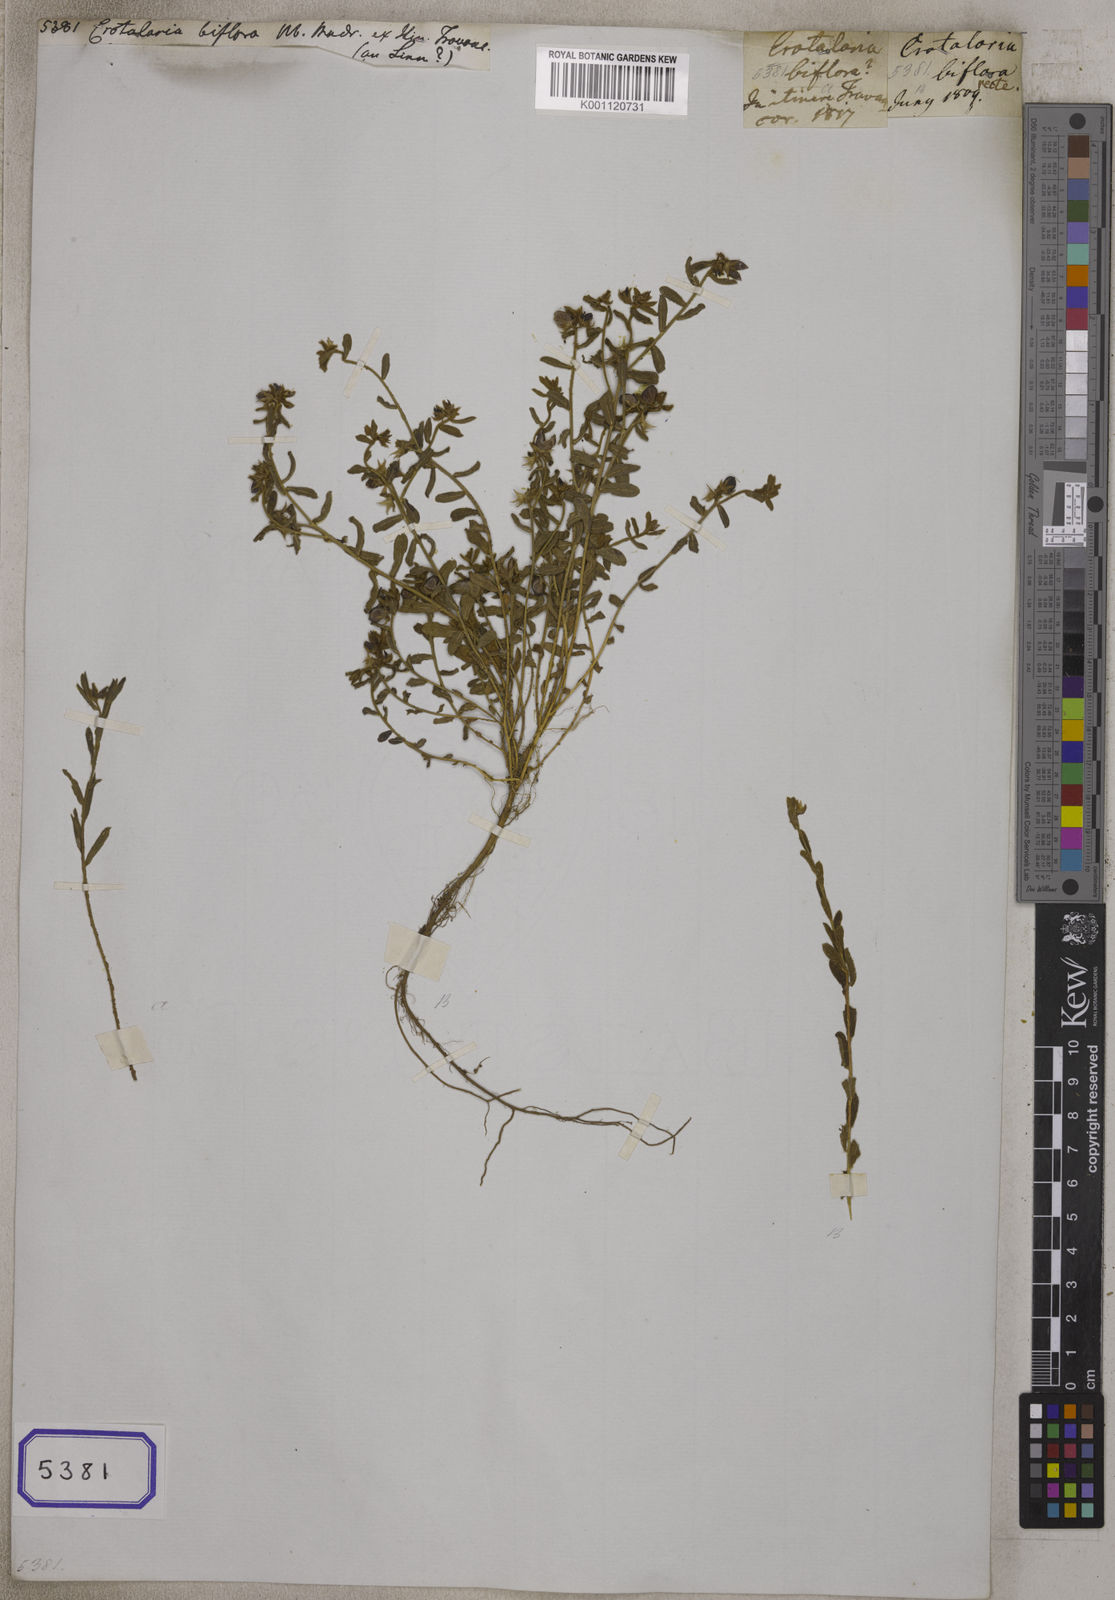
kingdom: Plantae
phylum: Tracheophyta
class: Magnoliopsida
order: Fabales
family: Fabaceae
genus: Crotalaria
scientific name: Crotalaria
